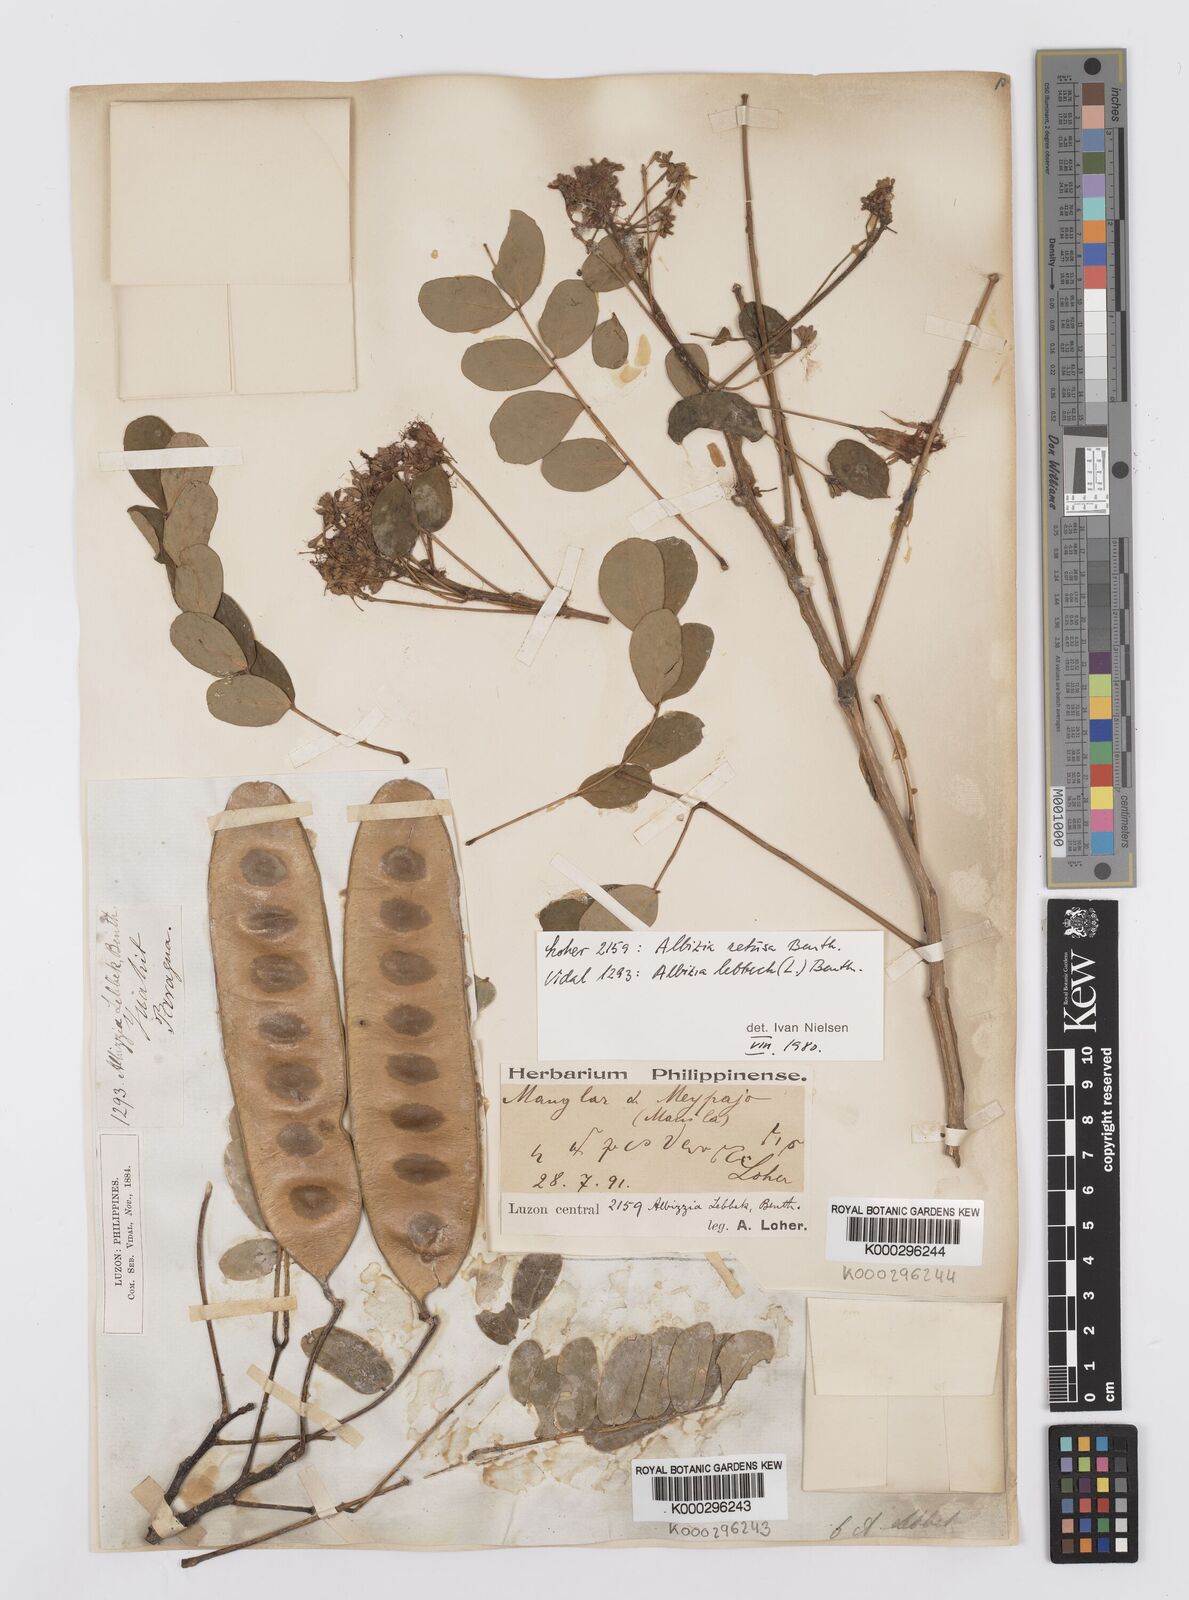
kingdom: Plantae
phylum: Tracheophyta
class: Magnoliopsida
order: Fabales
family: Fabaceae
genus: Albizia
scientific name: Albizia lebbeck
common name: Woman's tongue
